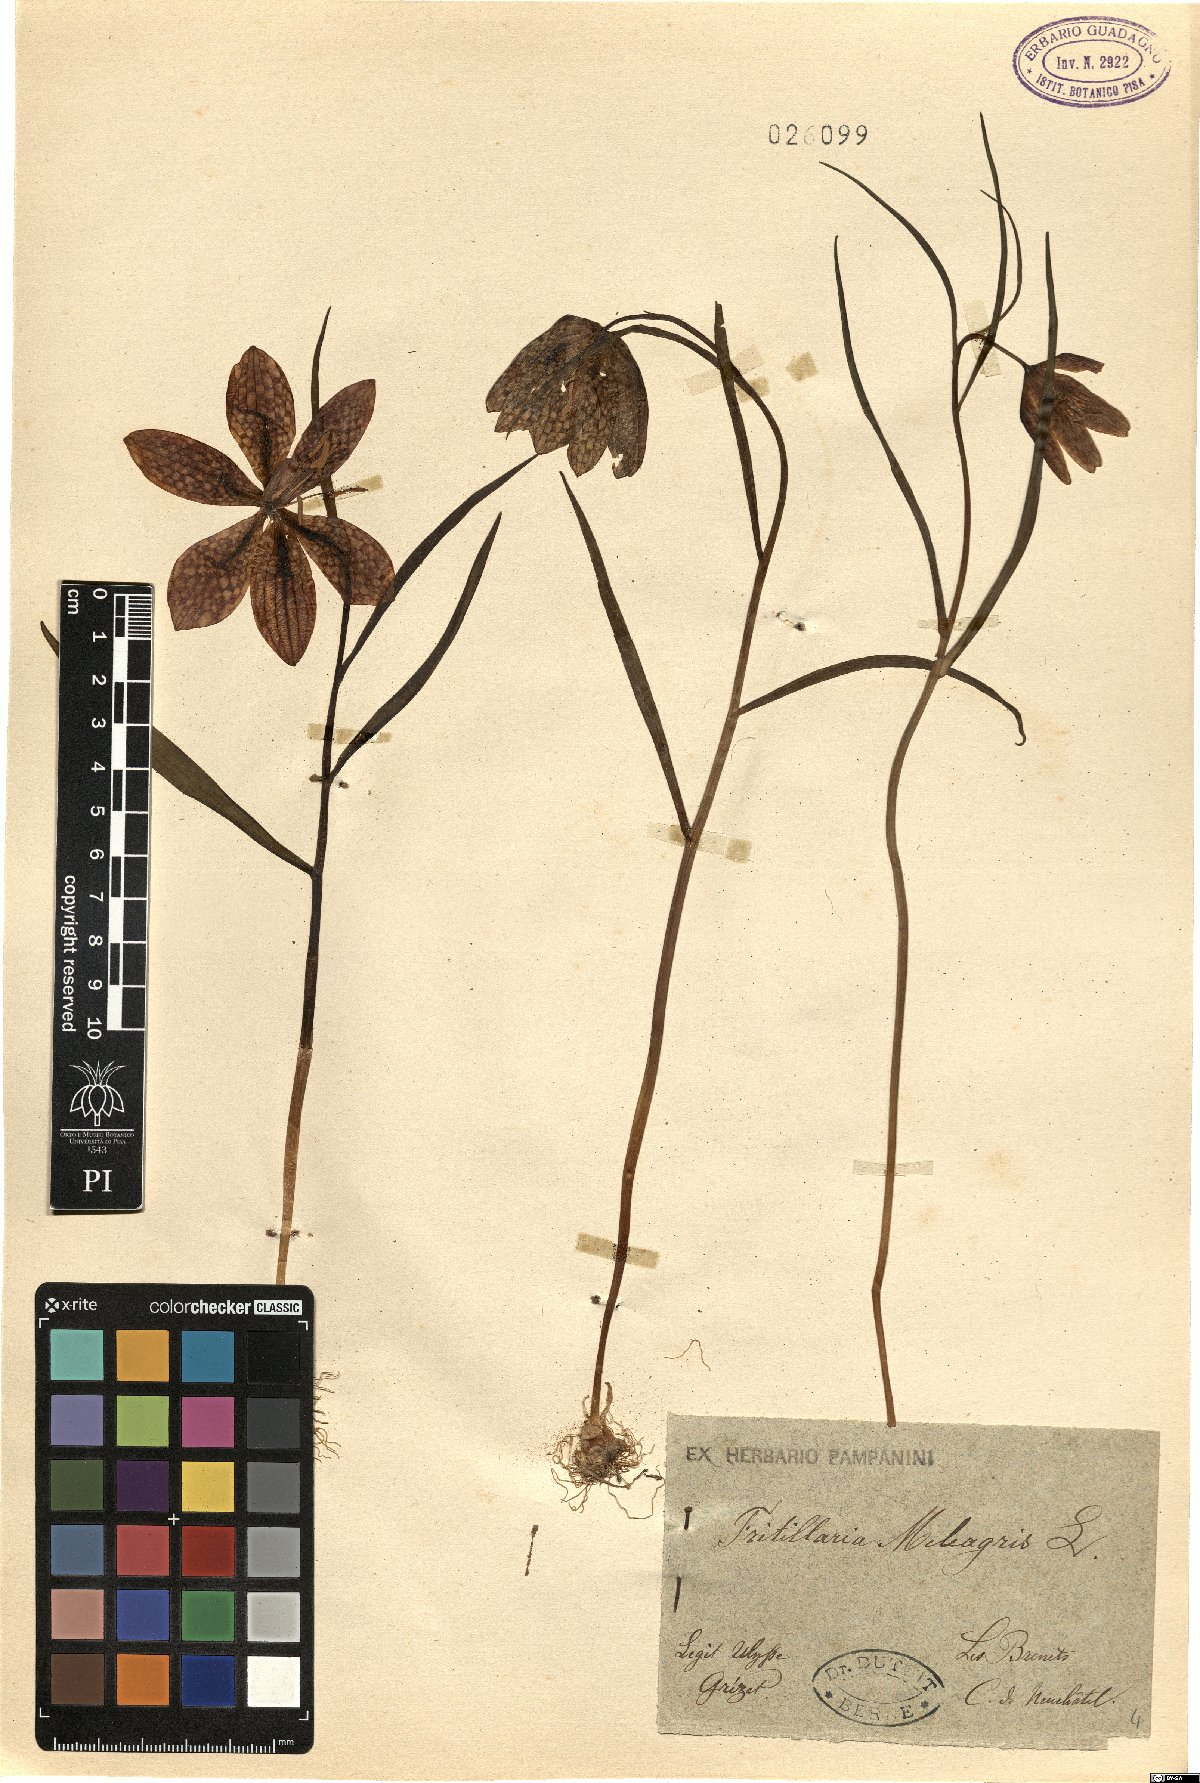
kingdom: Plantae
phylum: Tracheophyta
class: Liliopsida
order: Liliales
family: Liliaceae
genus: Fritillaria
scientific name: Fritillaria meleagris
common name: Fritillary
